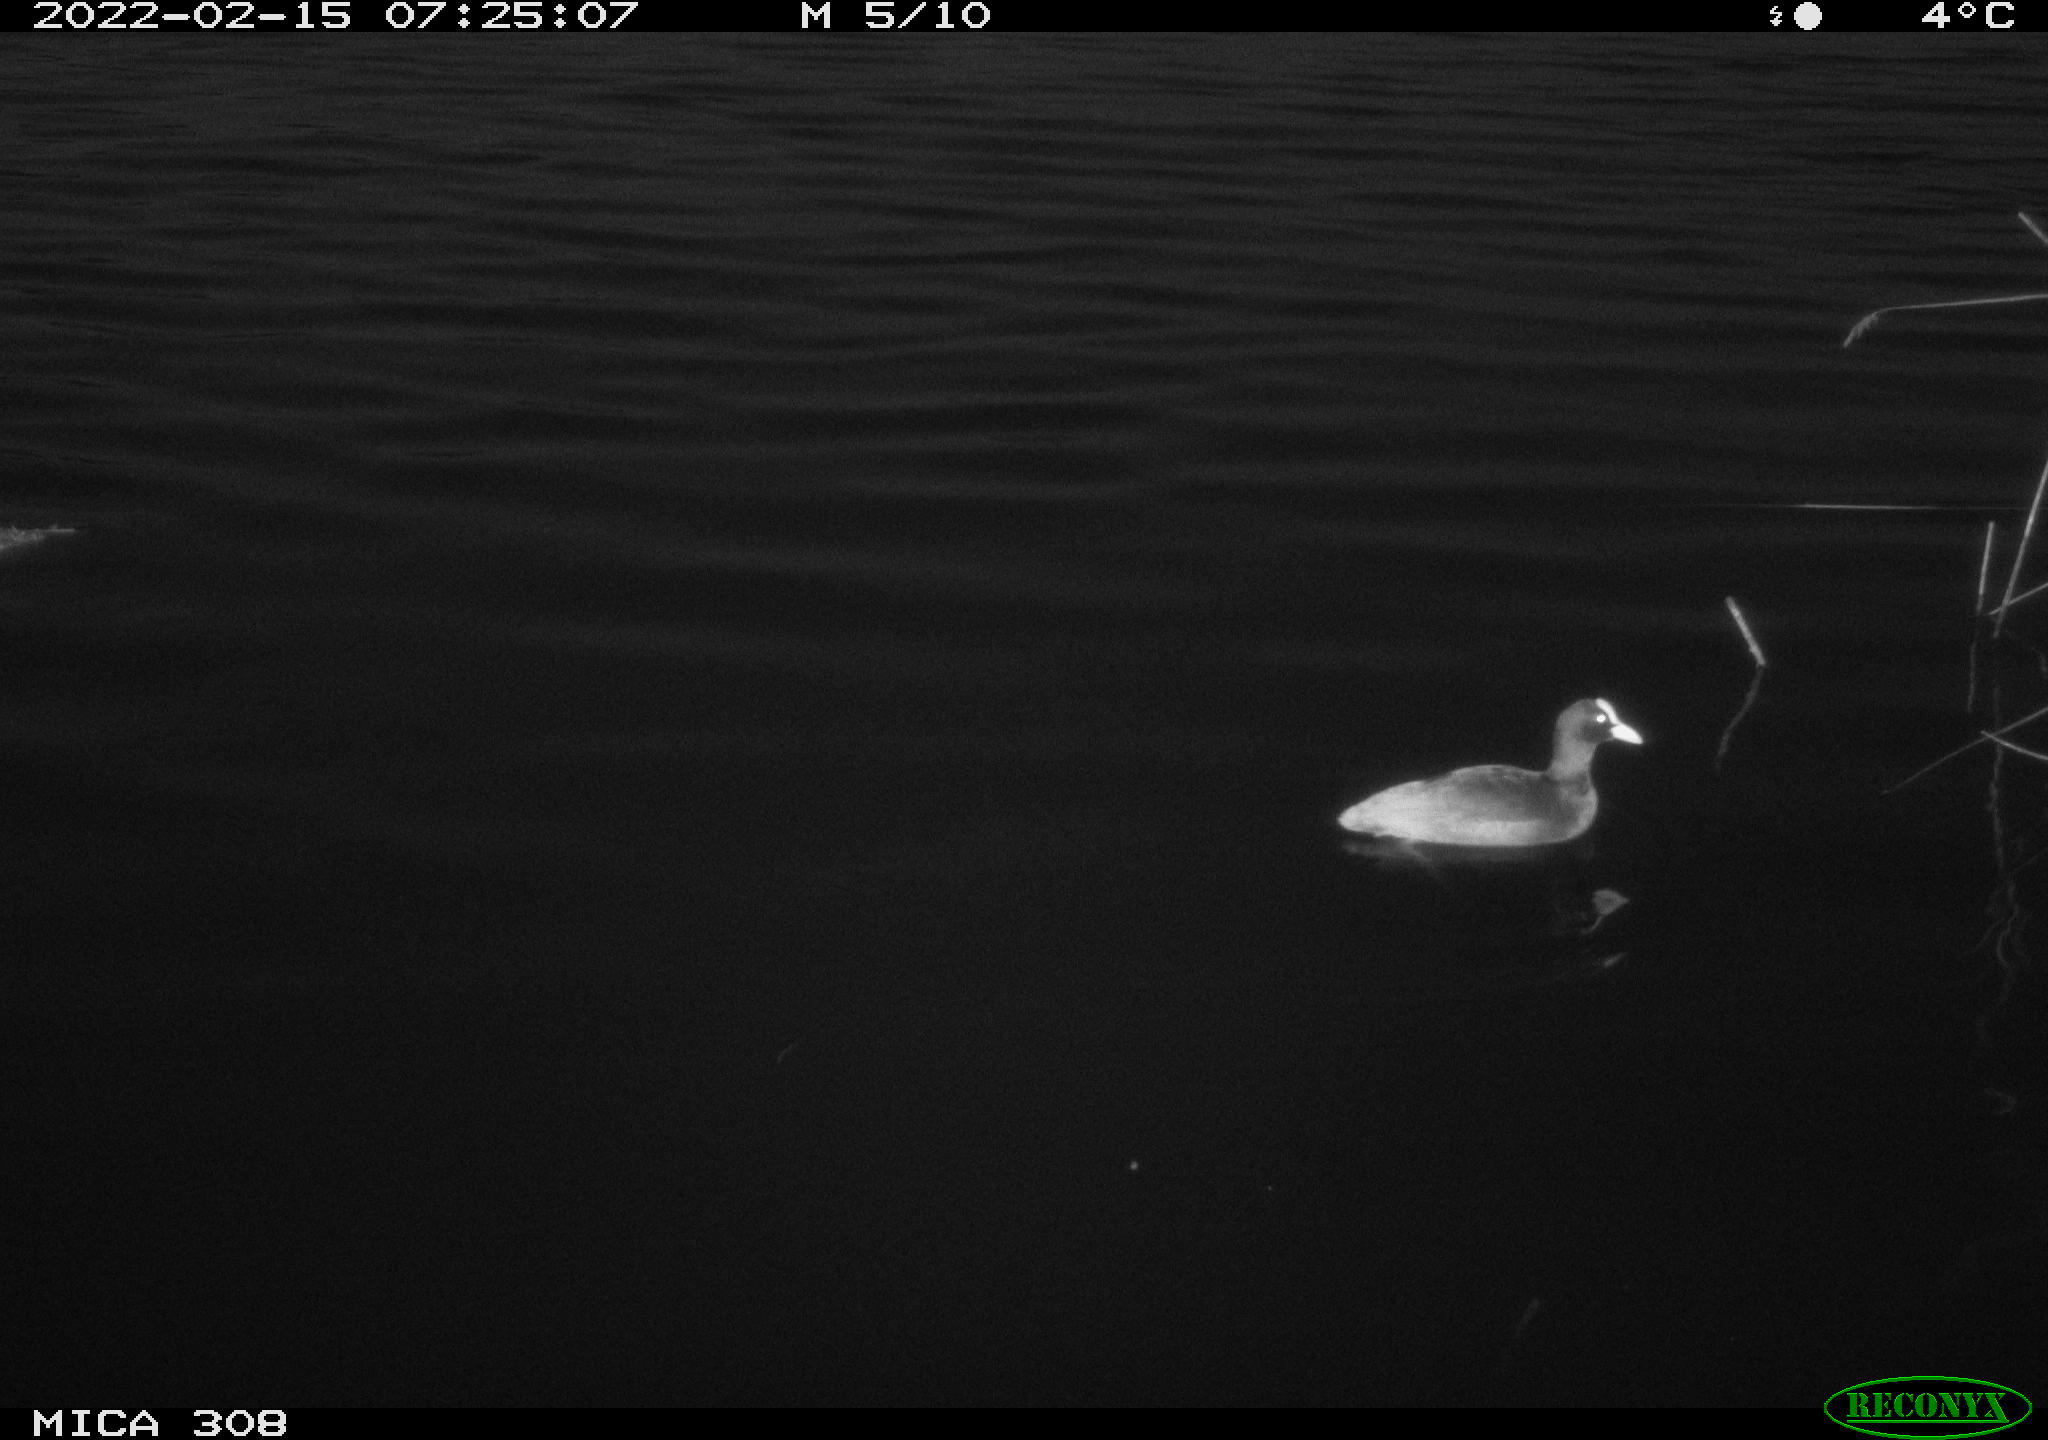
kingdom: Animalia
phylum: Chordata
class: Aves
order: Gruiformes
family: Rallidae
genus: Fulica
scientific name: Fulica atra
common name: Eurasian coot
